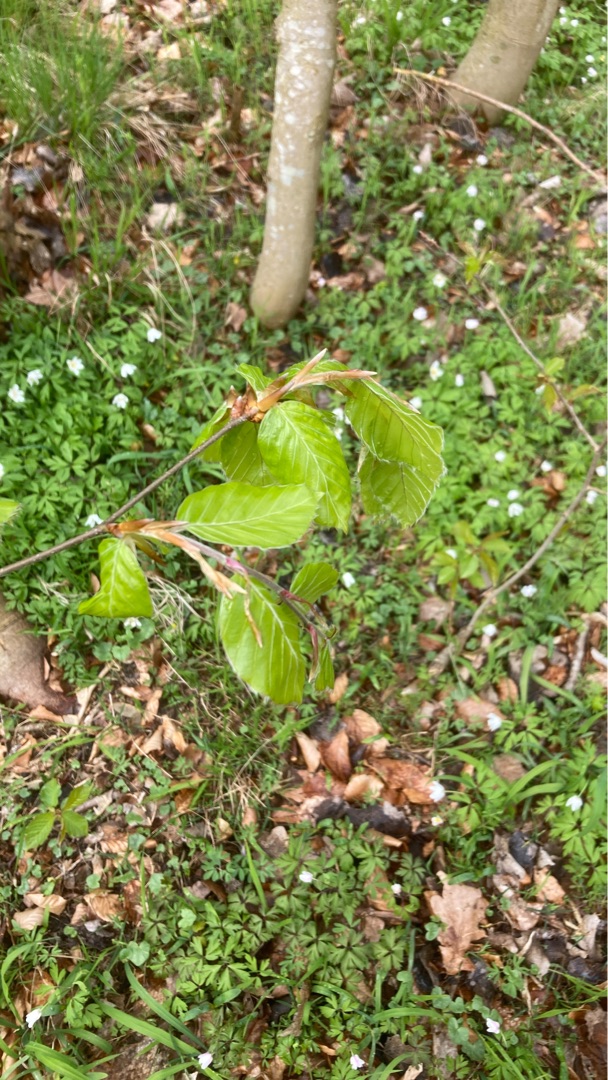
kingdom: Plantae
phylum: Tracheophyta
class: Magnoliopsida
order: Fagales
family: Fagaceae
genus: Fagus
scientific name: Fagus sylvatica
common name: Bøg
